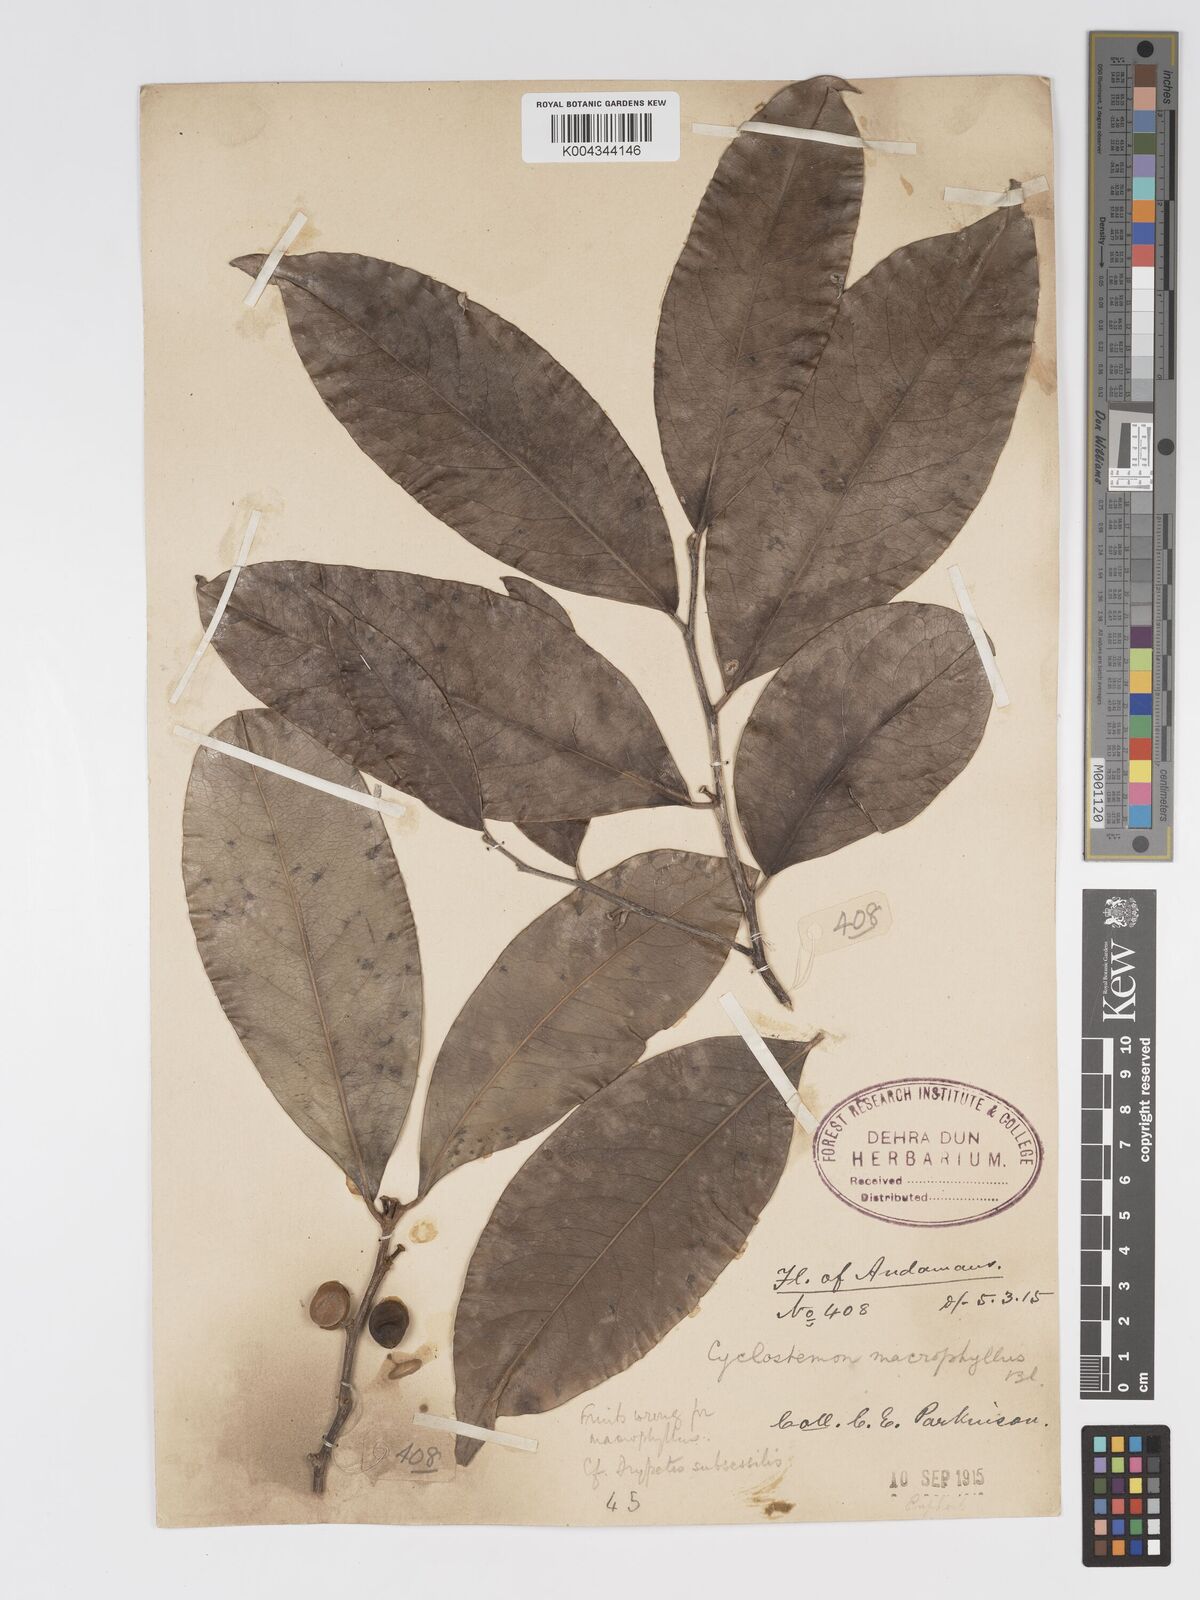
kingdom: Plantae
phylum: Tracheophyta
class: Magnoliopsida
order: Malpighiales
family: Putranjivaceae
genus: Drypetes
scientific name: Drypetes subsessilis
